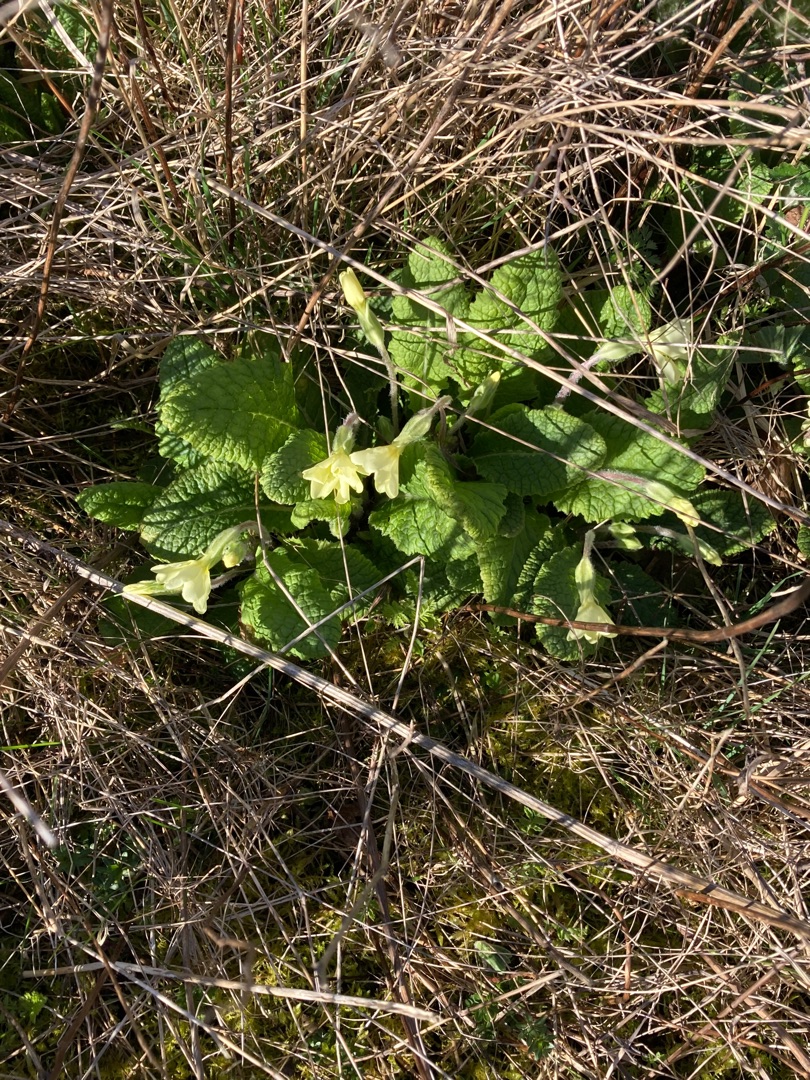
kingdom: Plantae
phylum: Tracheophyta
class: Magnoliopsida
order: Ericales
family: Primulaceae
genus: Primula
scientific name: Primula vulgaris
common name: Storblomstret kodriver
